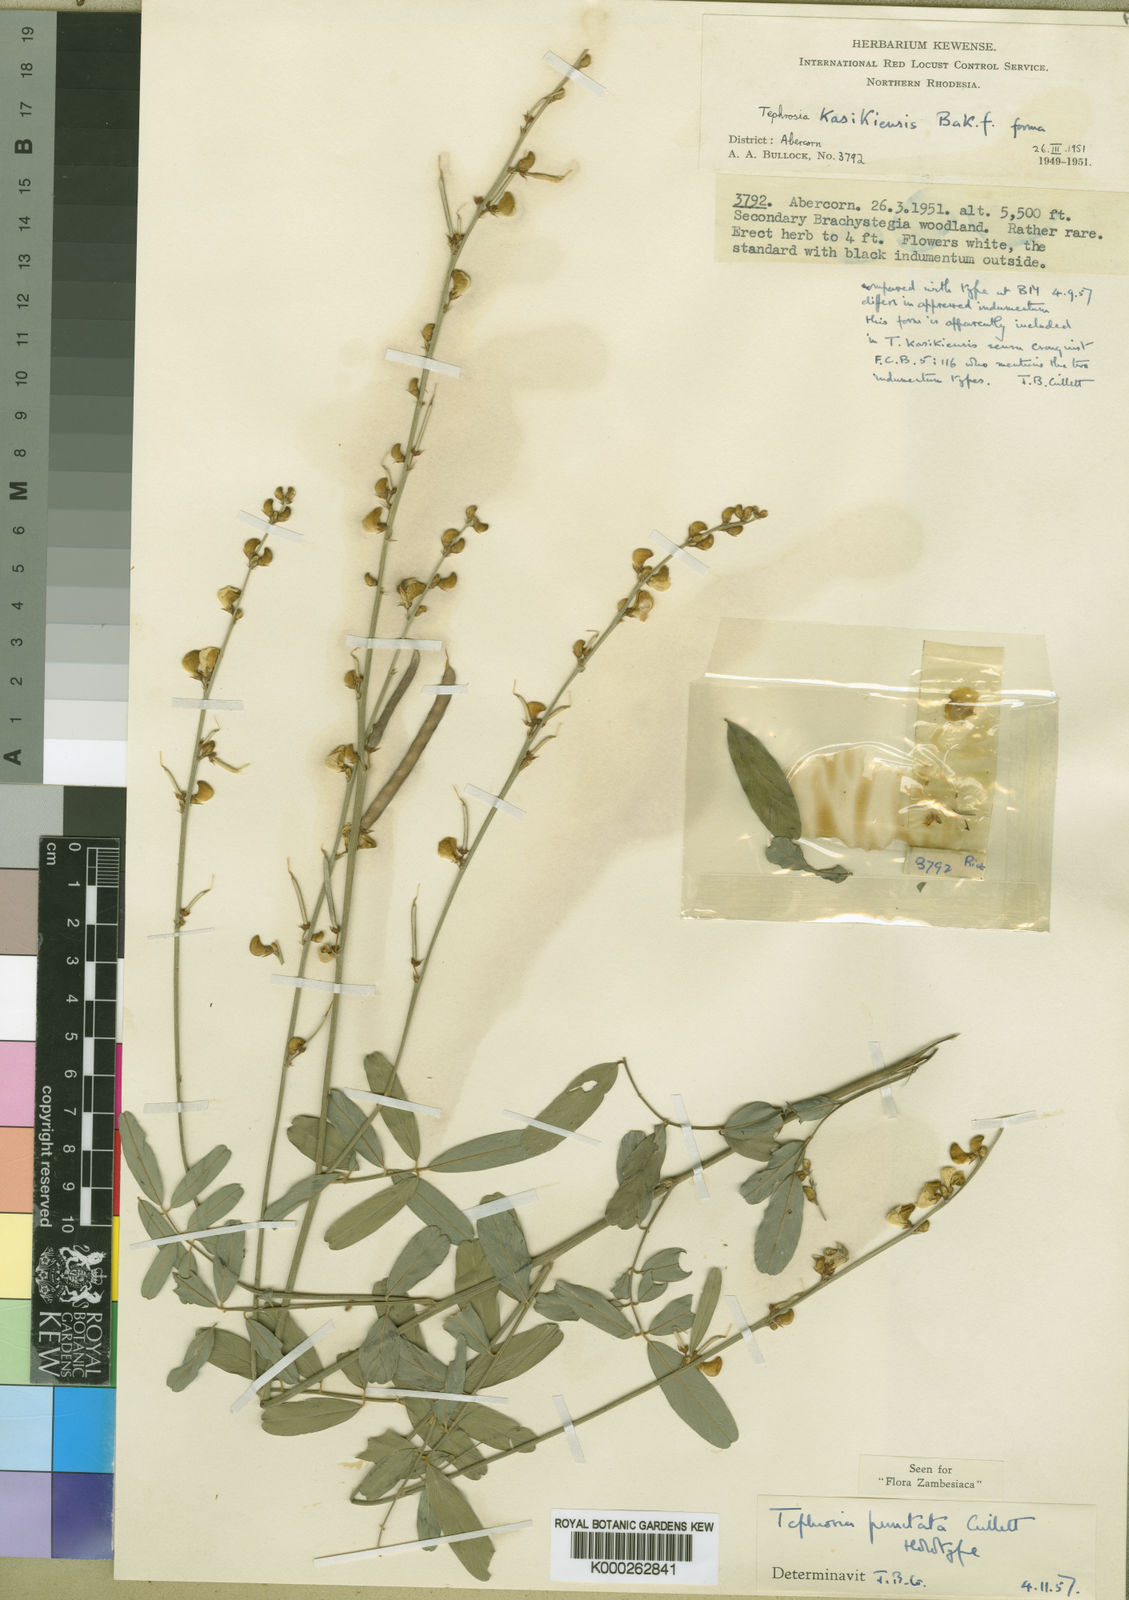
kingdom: Plantae
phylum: Tracheophyta
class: Magnoliopsida
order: Fabales
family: Fabaceae
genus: Tephrosia
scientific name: Tephrosia
